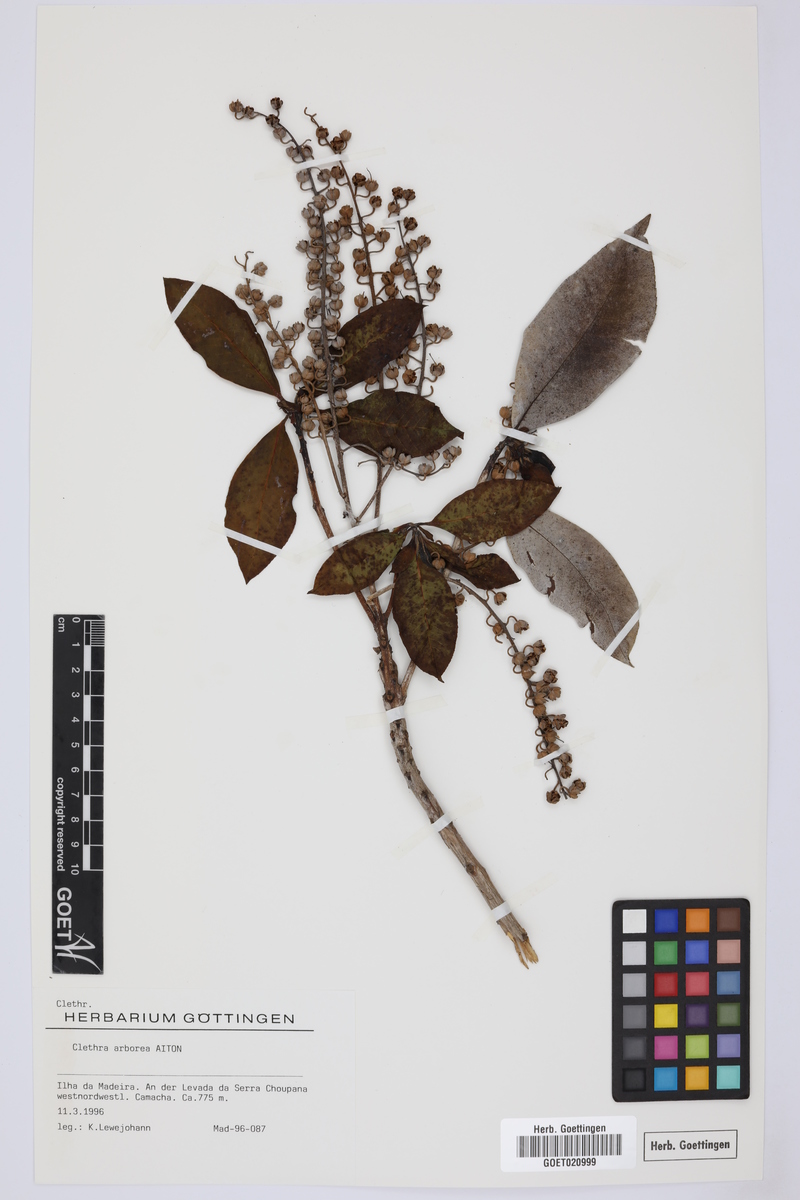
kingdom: Plantae
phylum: Tracheophyta
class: Magnoliopsida
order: Ericales
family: Clethraceae
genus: Clethra
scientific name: Clethra arborea
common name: Lily-of-the-valley-tree
